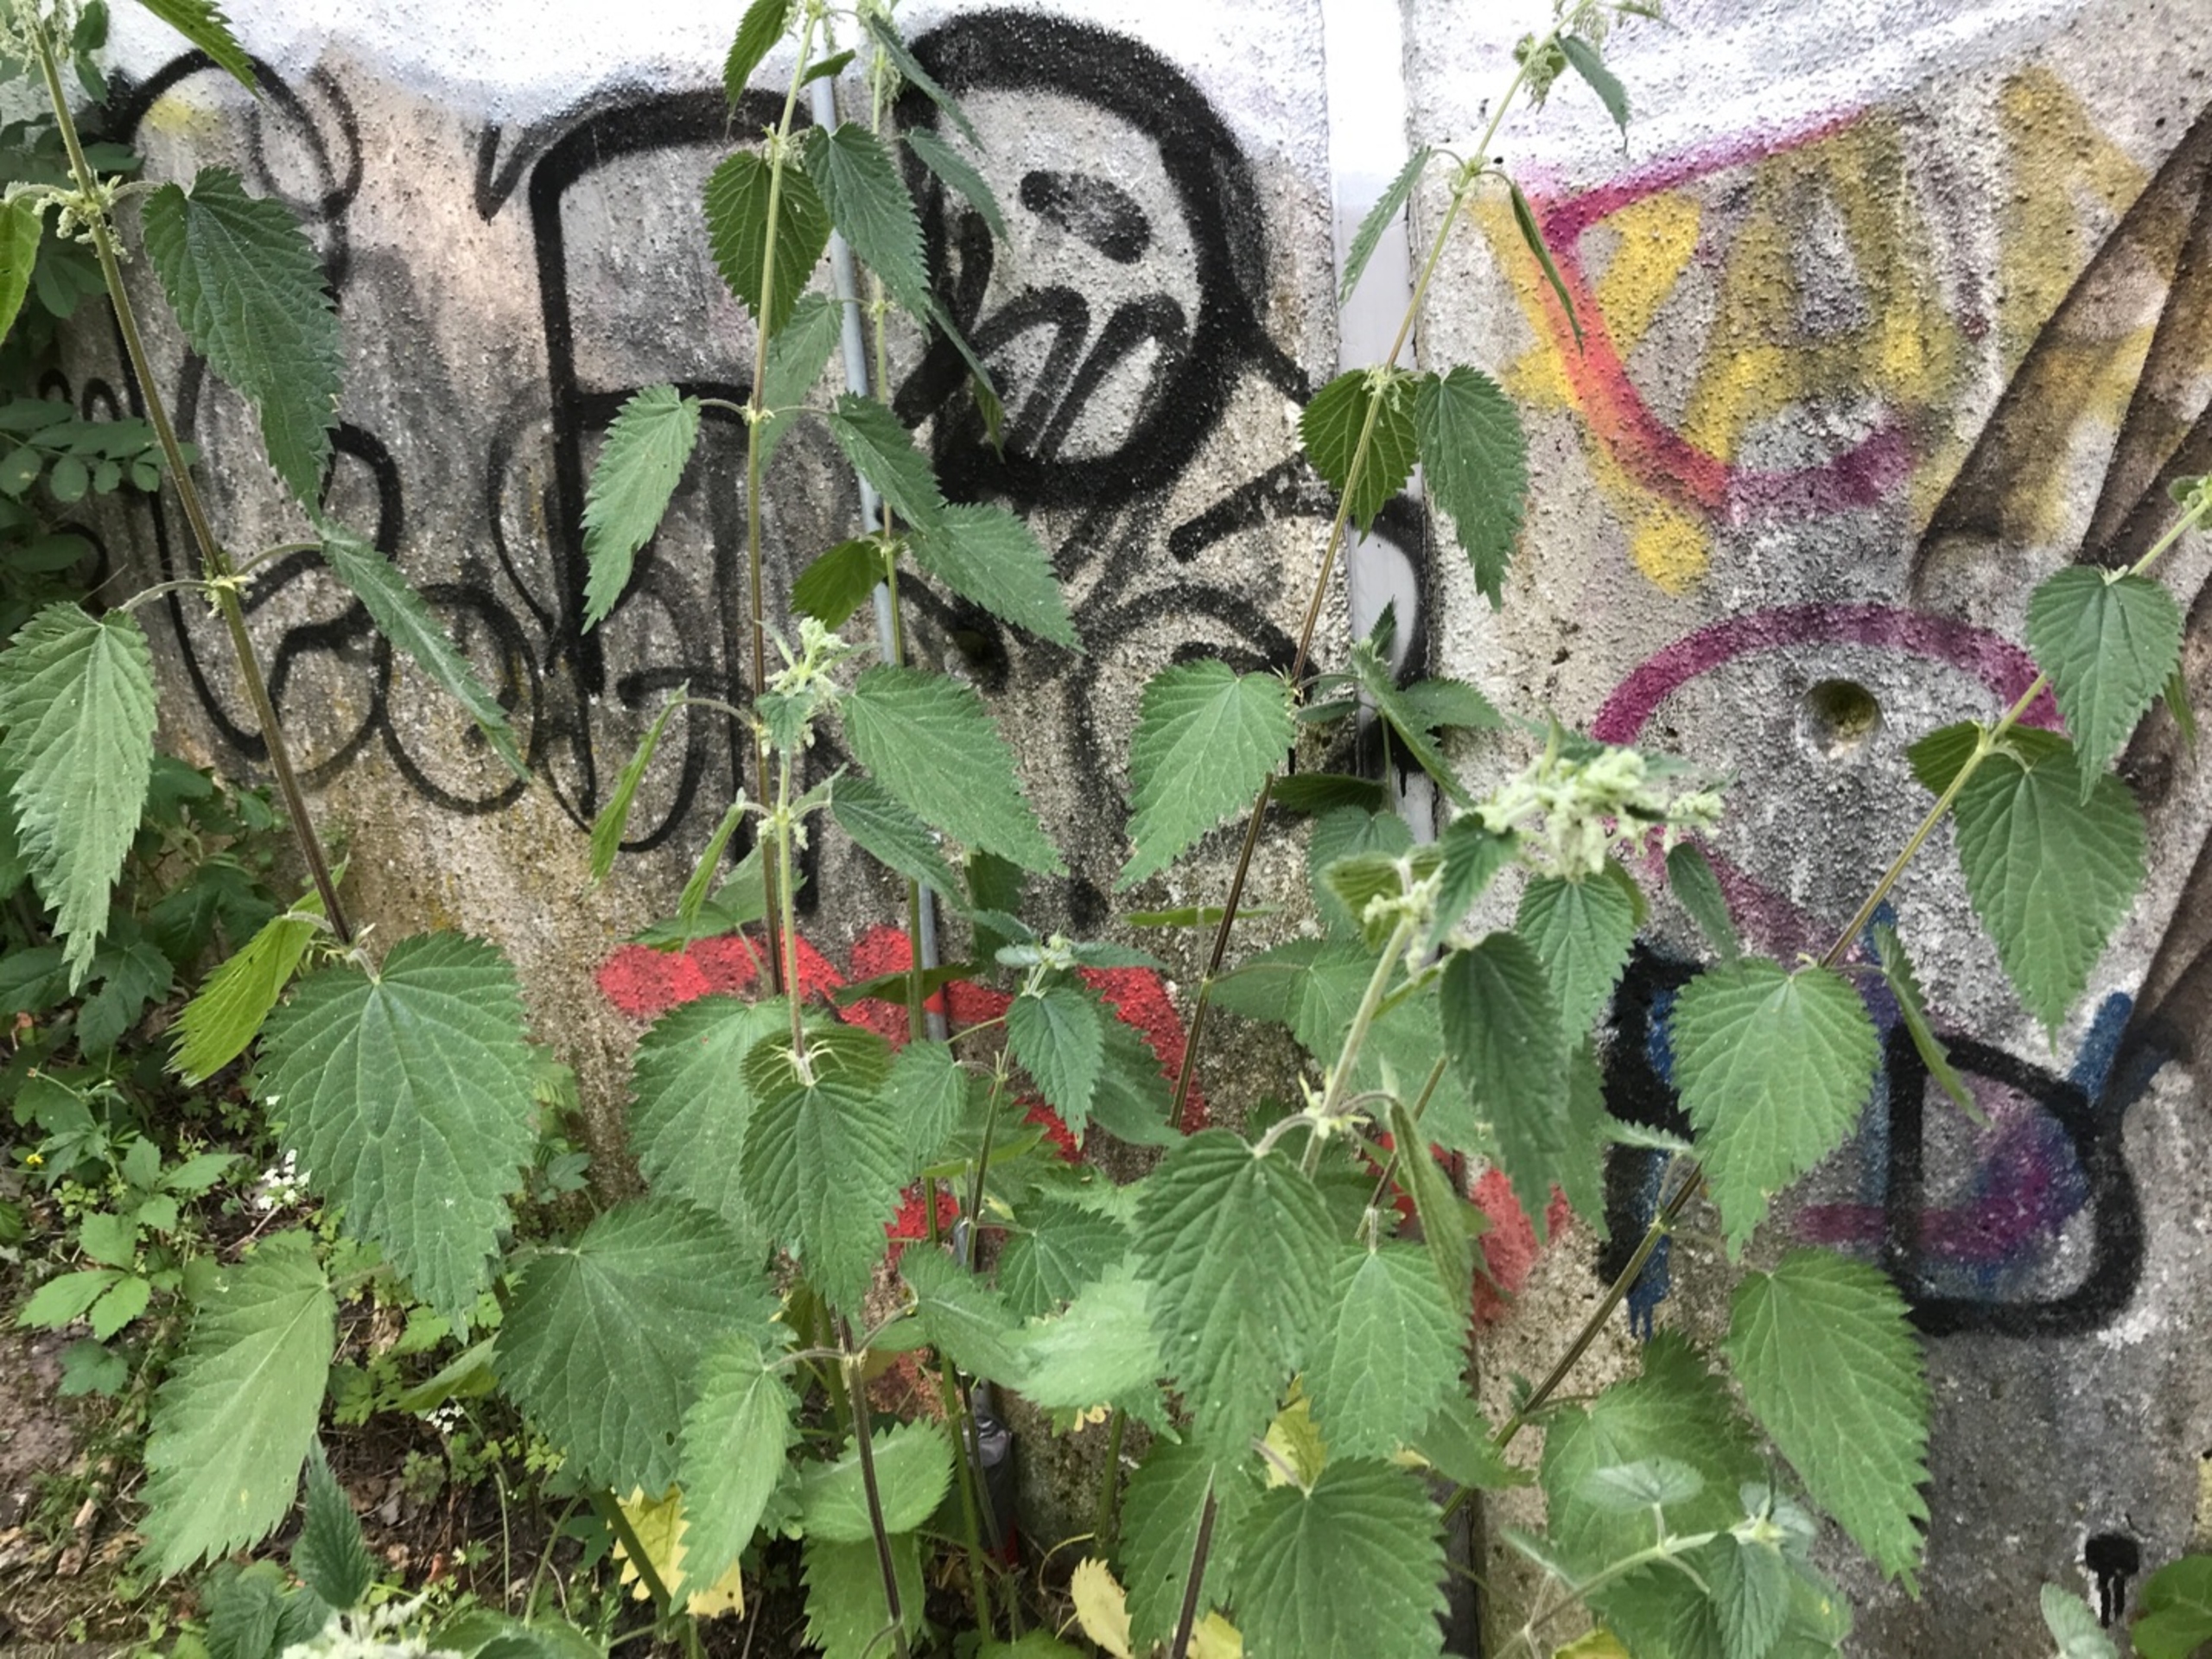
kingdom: Plantae
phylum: Tracheophyta
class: Magnoliopsida
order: Rosales
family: Urticaceae
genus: Urtica
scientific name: Urtica dioica
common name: Stor nælde
